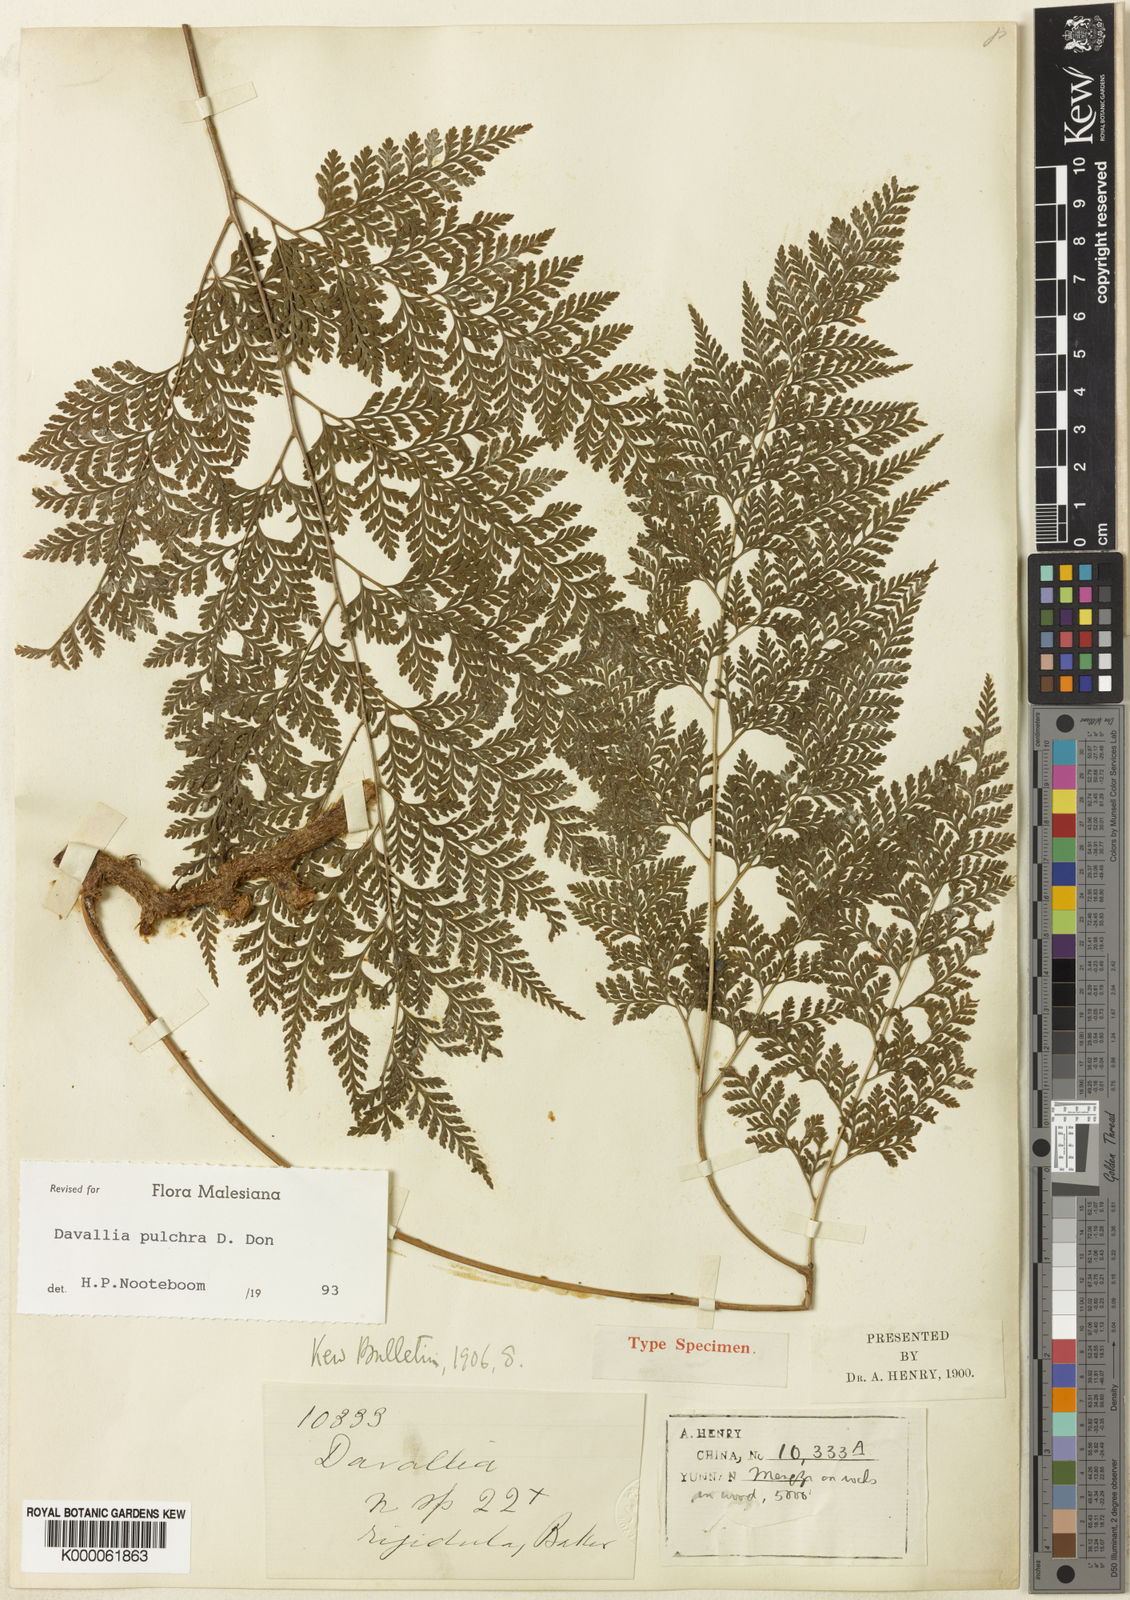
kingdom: Plantae
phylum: Tracheophyta
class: Polypodiopsida
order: Polypodiales
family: Davalliaceae
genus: Davallodes
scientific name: Davallodes yunnanensis
